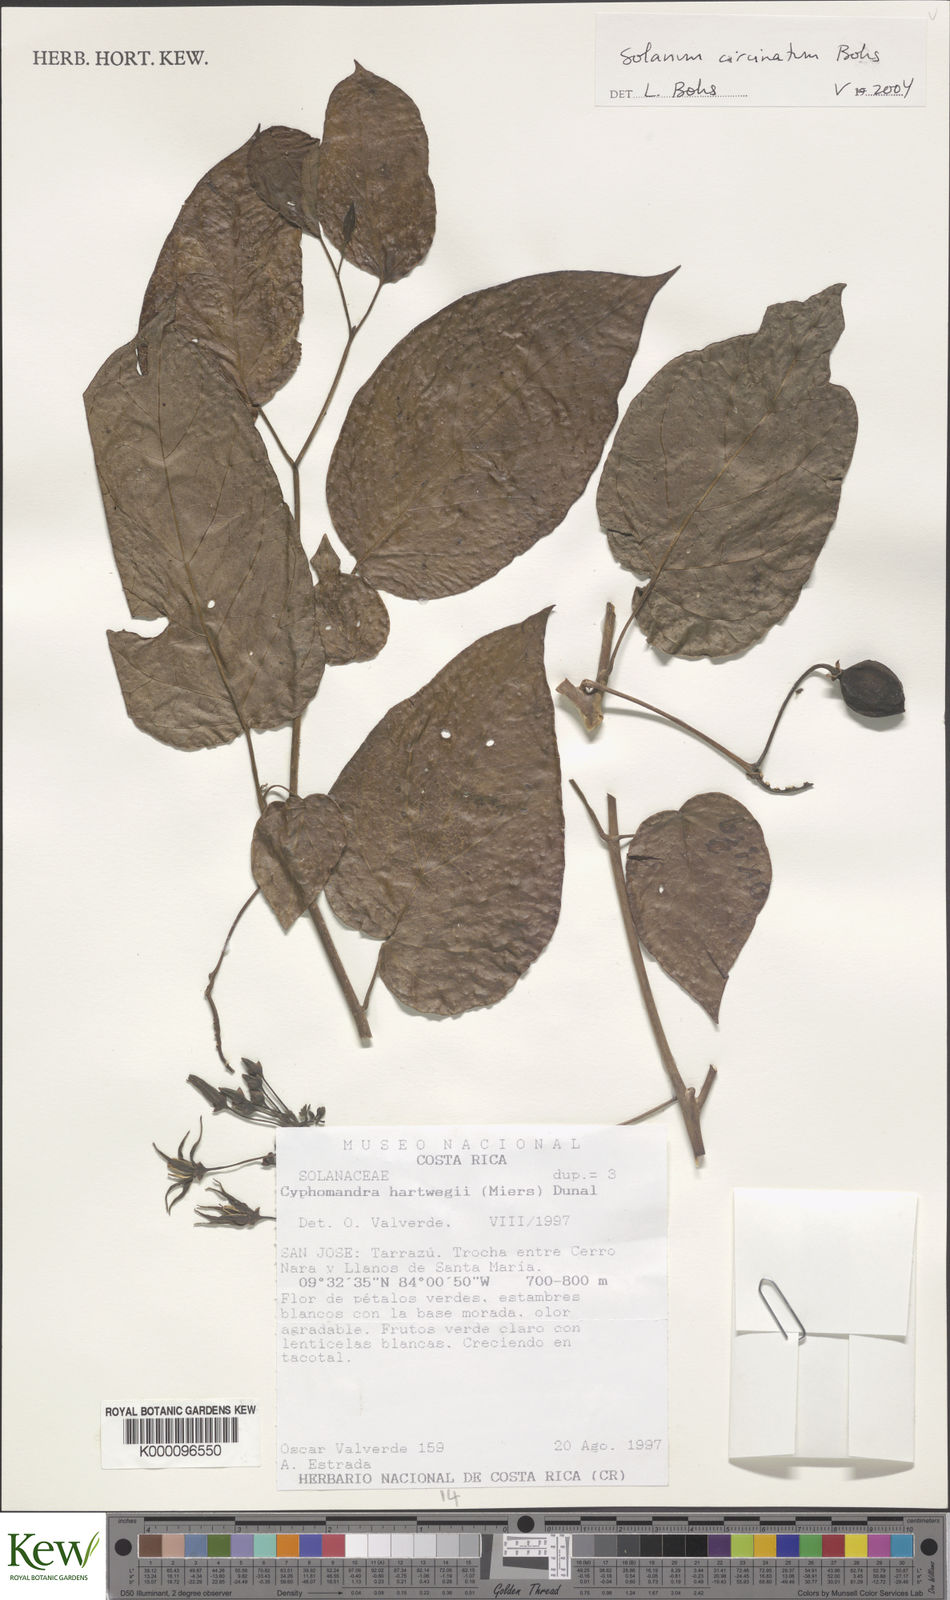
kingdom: Plantae
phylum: Tracheophyta
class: Magnoliopsida
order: Solanales
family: Solanaceae
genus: Solanum
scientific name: Solanum splendens
